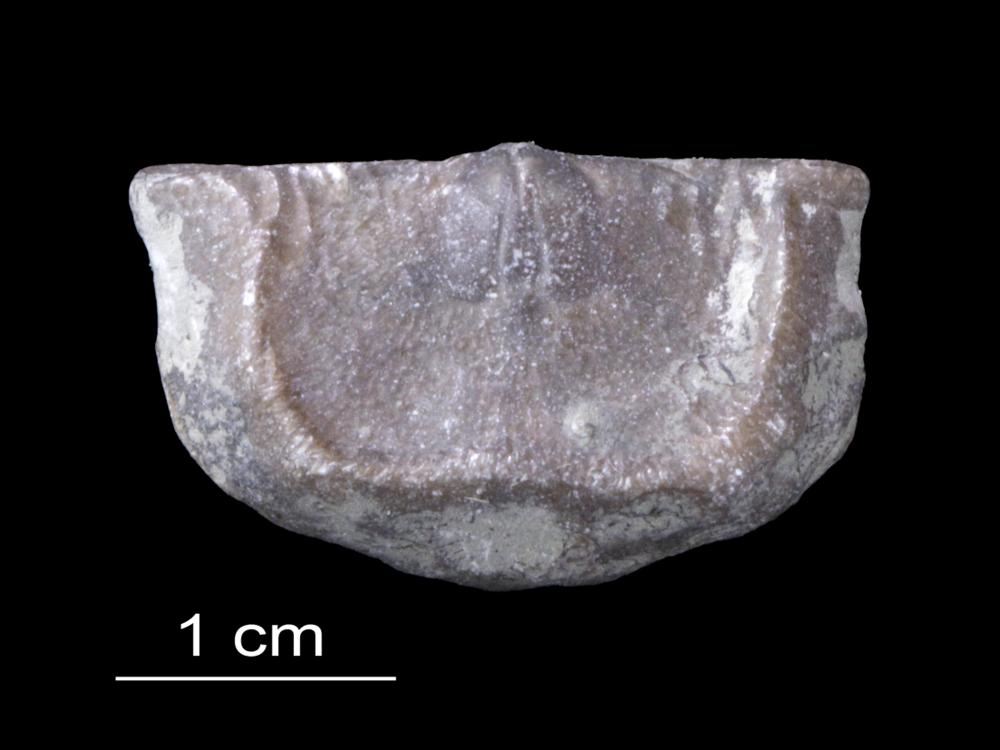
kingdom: Animalia
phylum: Brachiopoda
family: Strophomenidae
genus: Leptaena
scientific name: Leptaena Strophomena rhomboidalis
